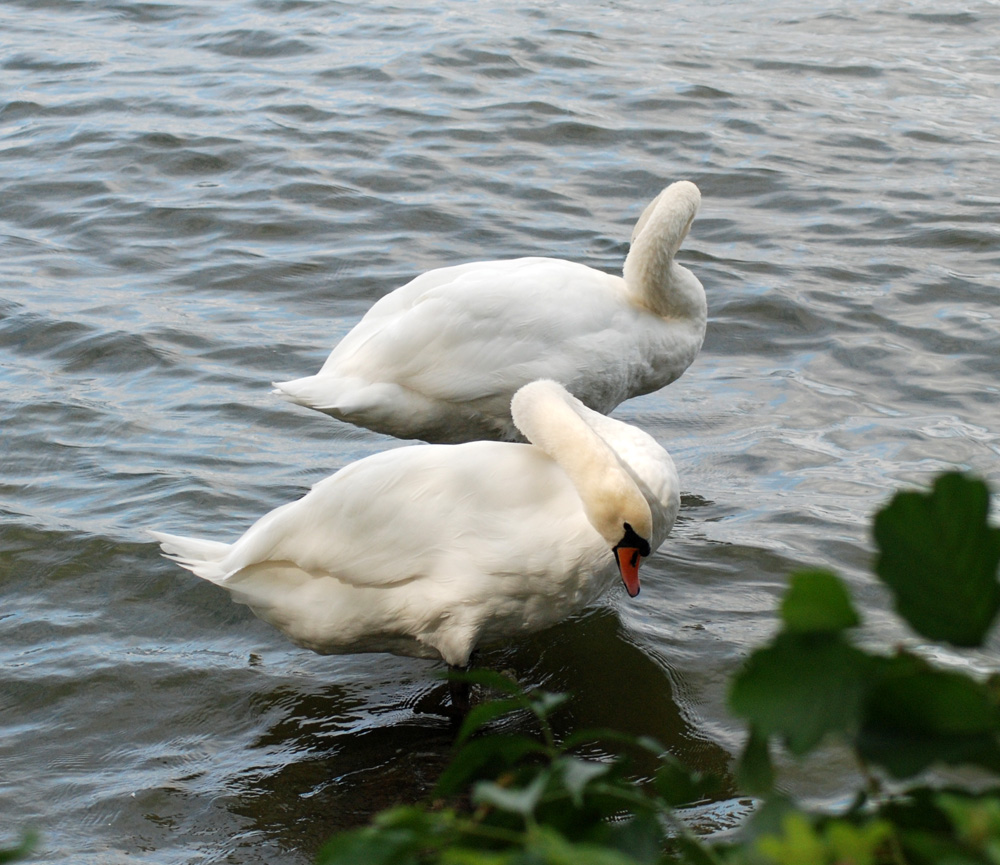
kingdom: Animalia
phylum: Chordata
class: Aves
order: Anseriformes
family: Anatidae
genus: Cygnus
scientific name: Cygnus olor
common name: Mute swan
